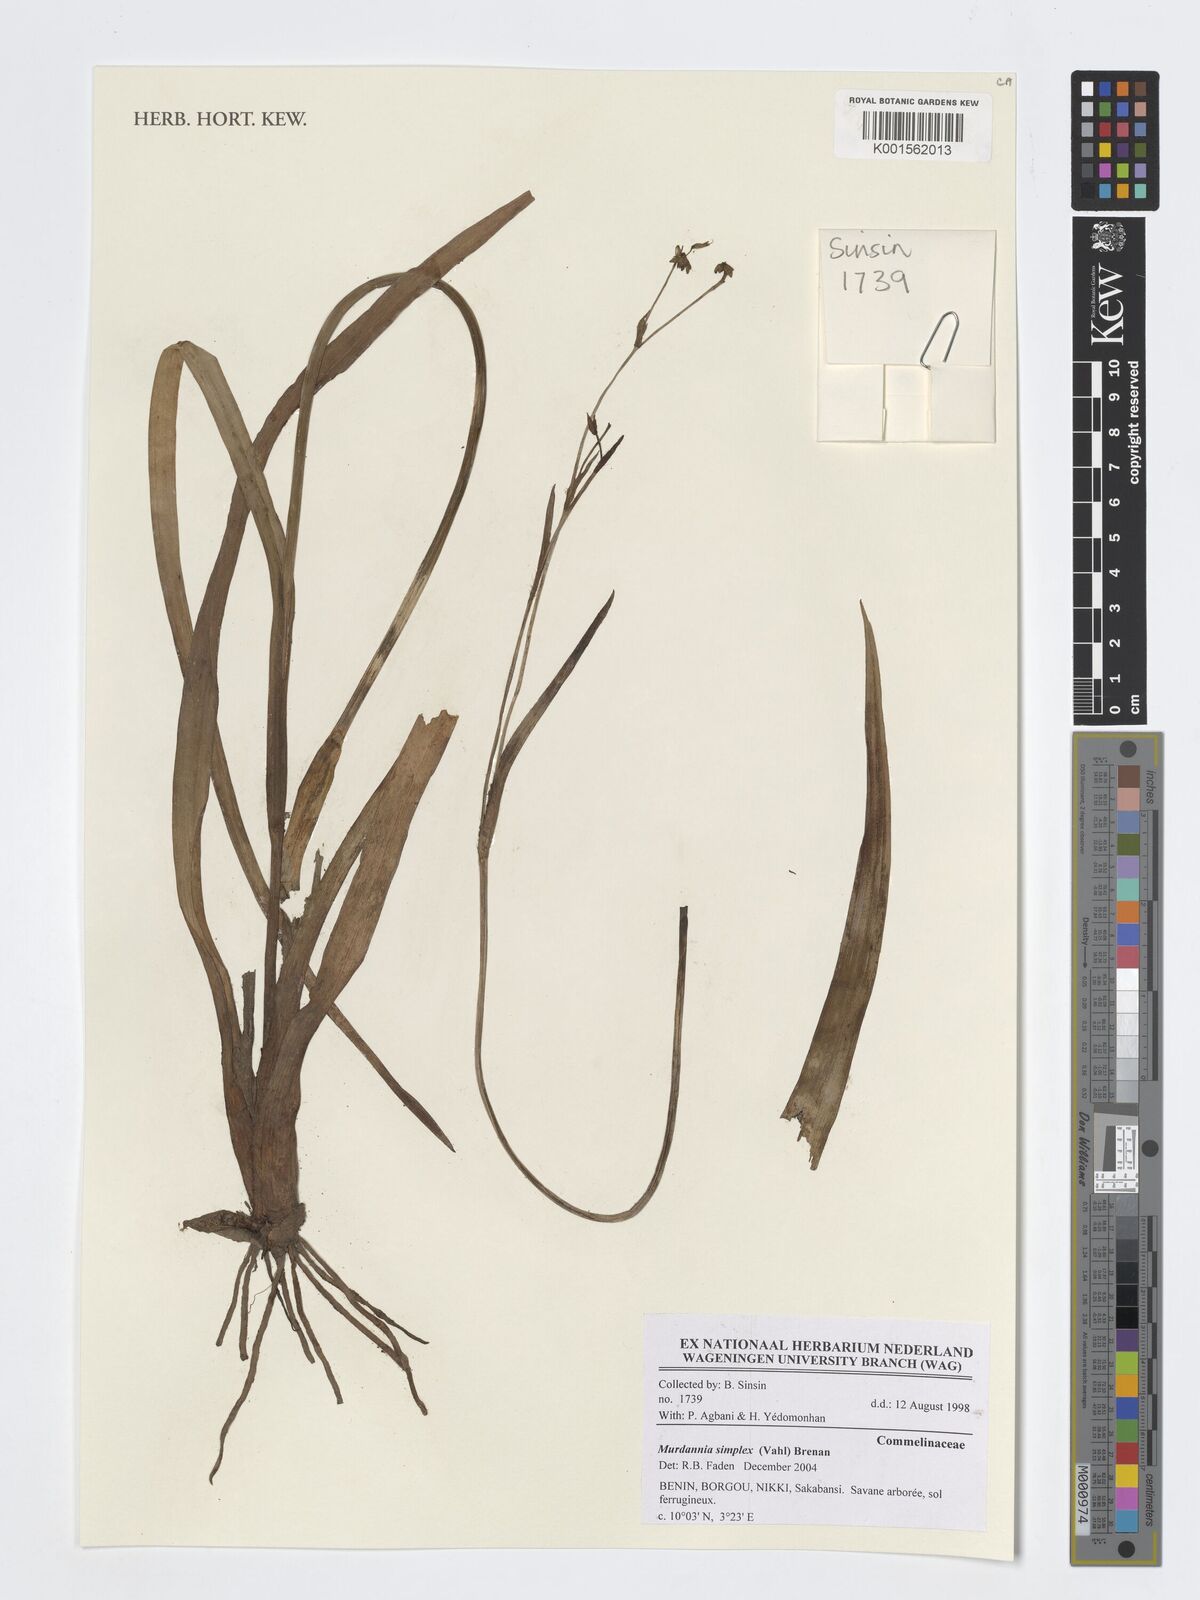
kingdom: Plantae
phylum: Tracheophyta
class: Liliopsida
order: Commelinales
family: Commelinaceae
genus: Murdannia
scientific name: Murdannia simplex
